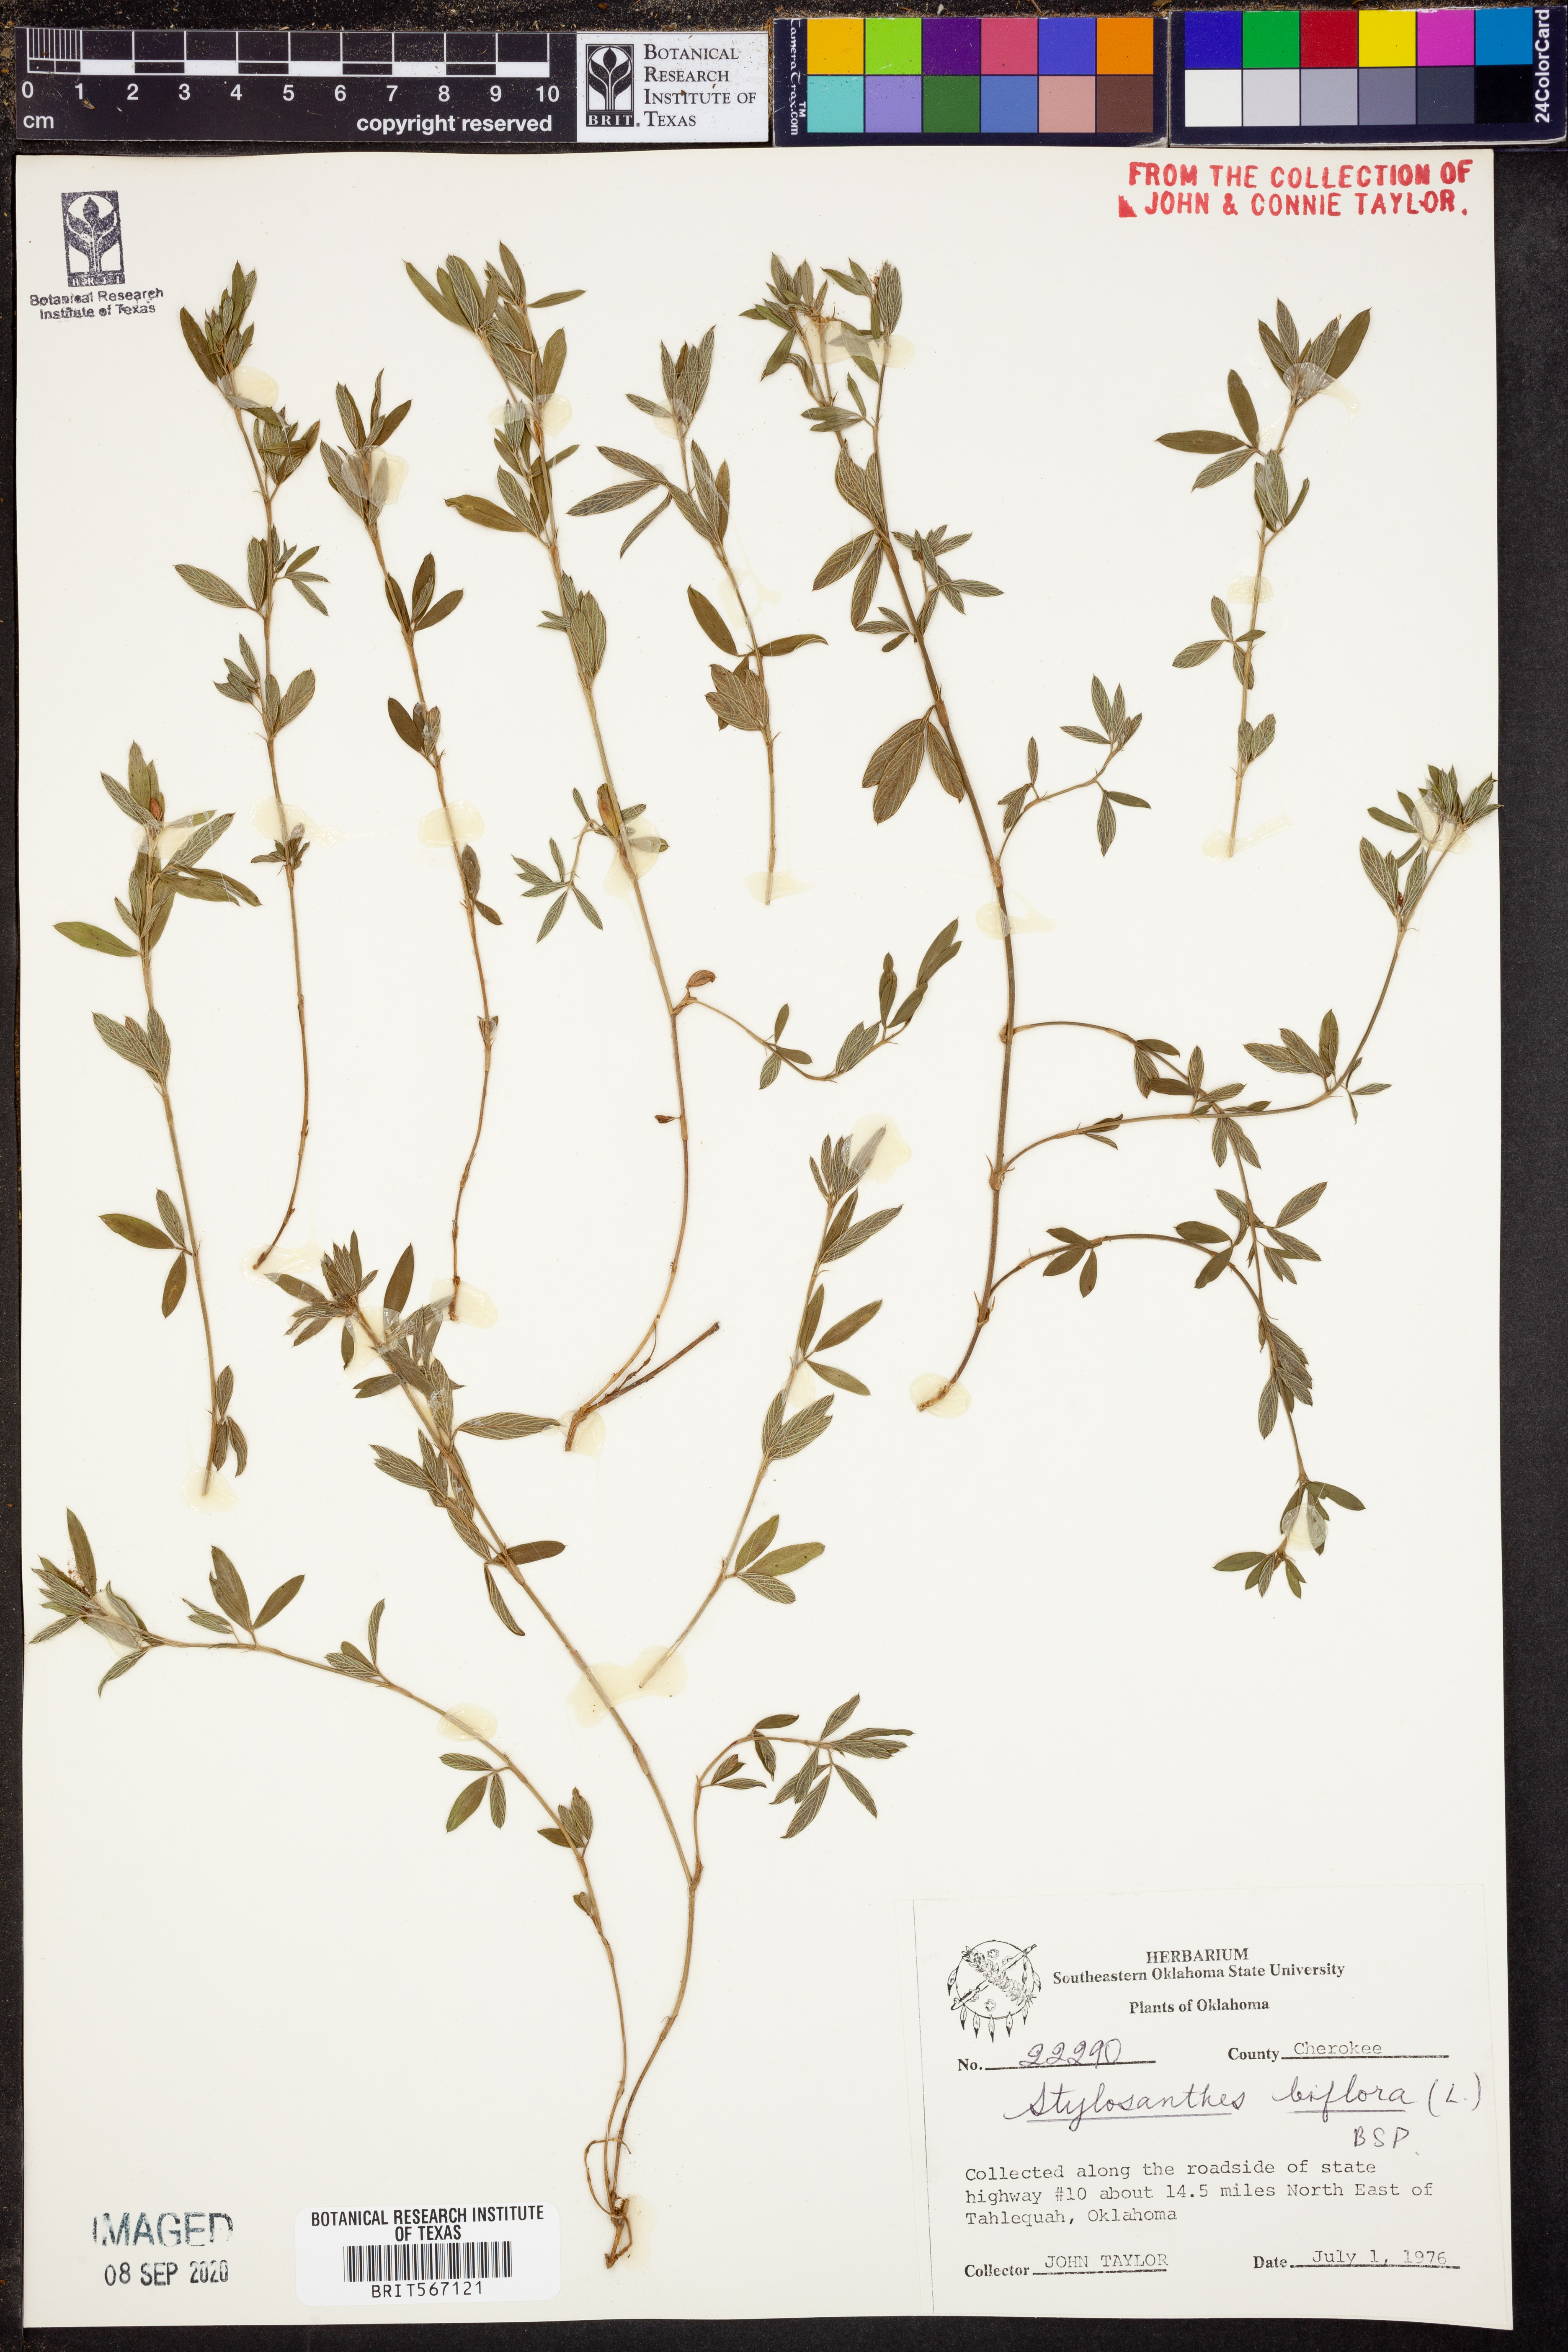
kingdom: Plantae
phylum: Tracheophyta
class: Magnoliopsida
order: Fabales
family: Fabaceae
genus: Stylosanthes
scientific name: Stylosanthes biflora
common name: Two-flower pencil-flower
